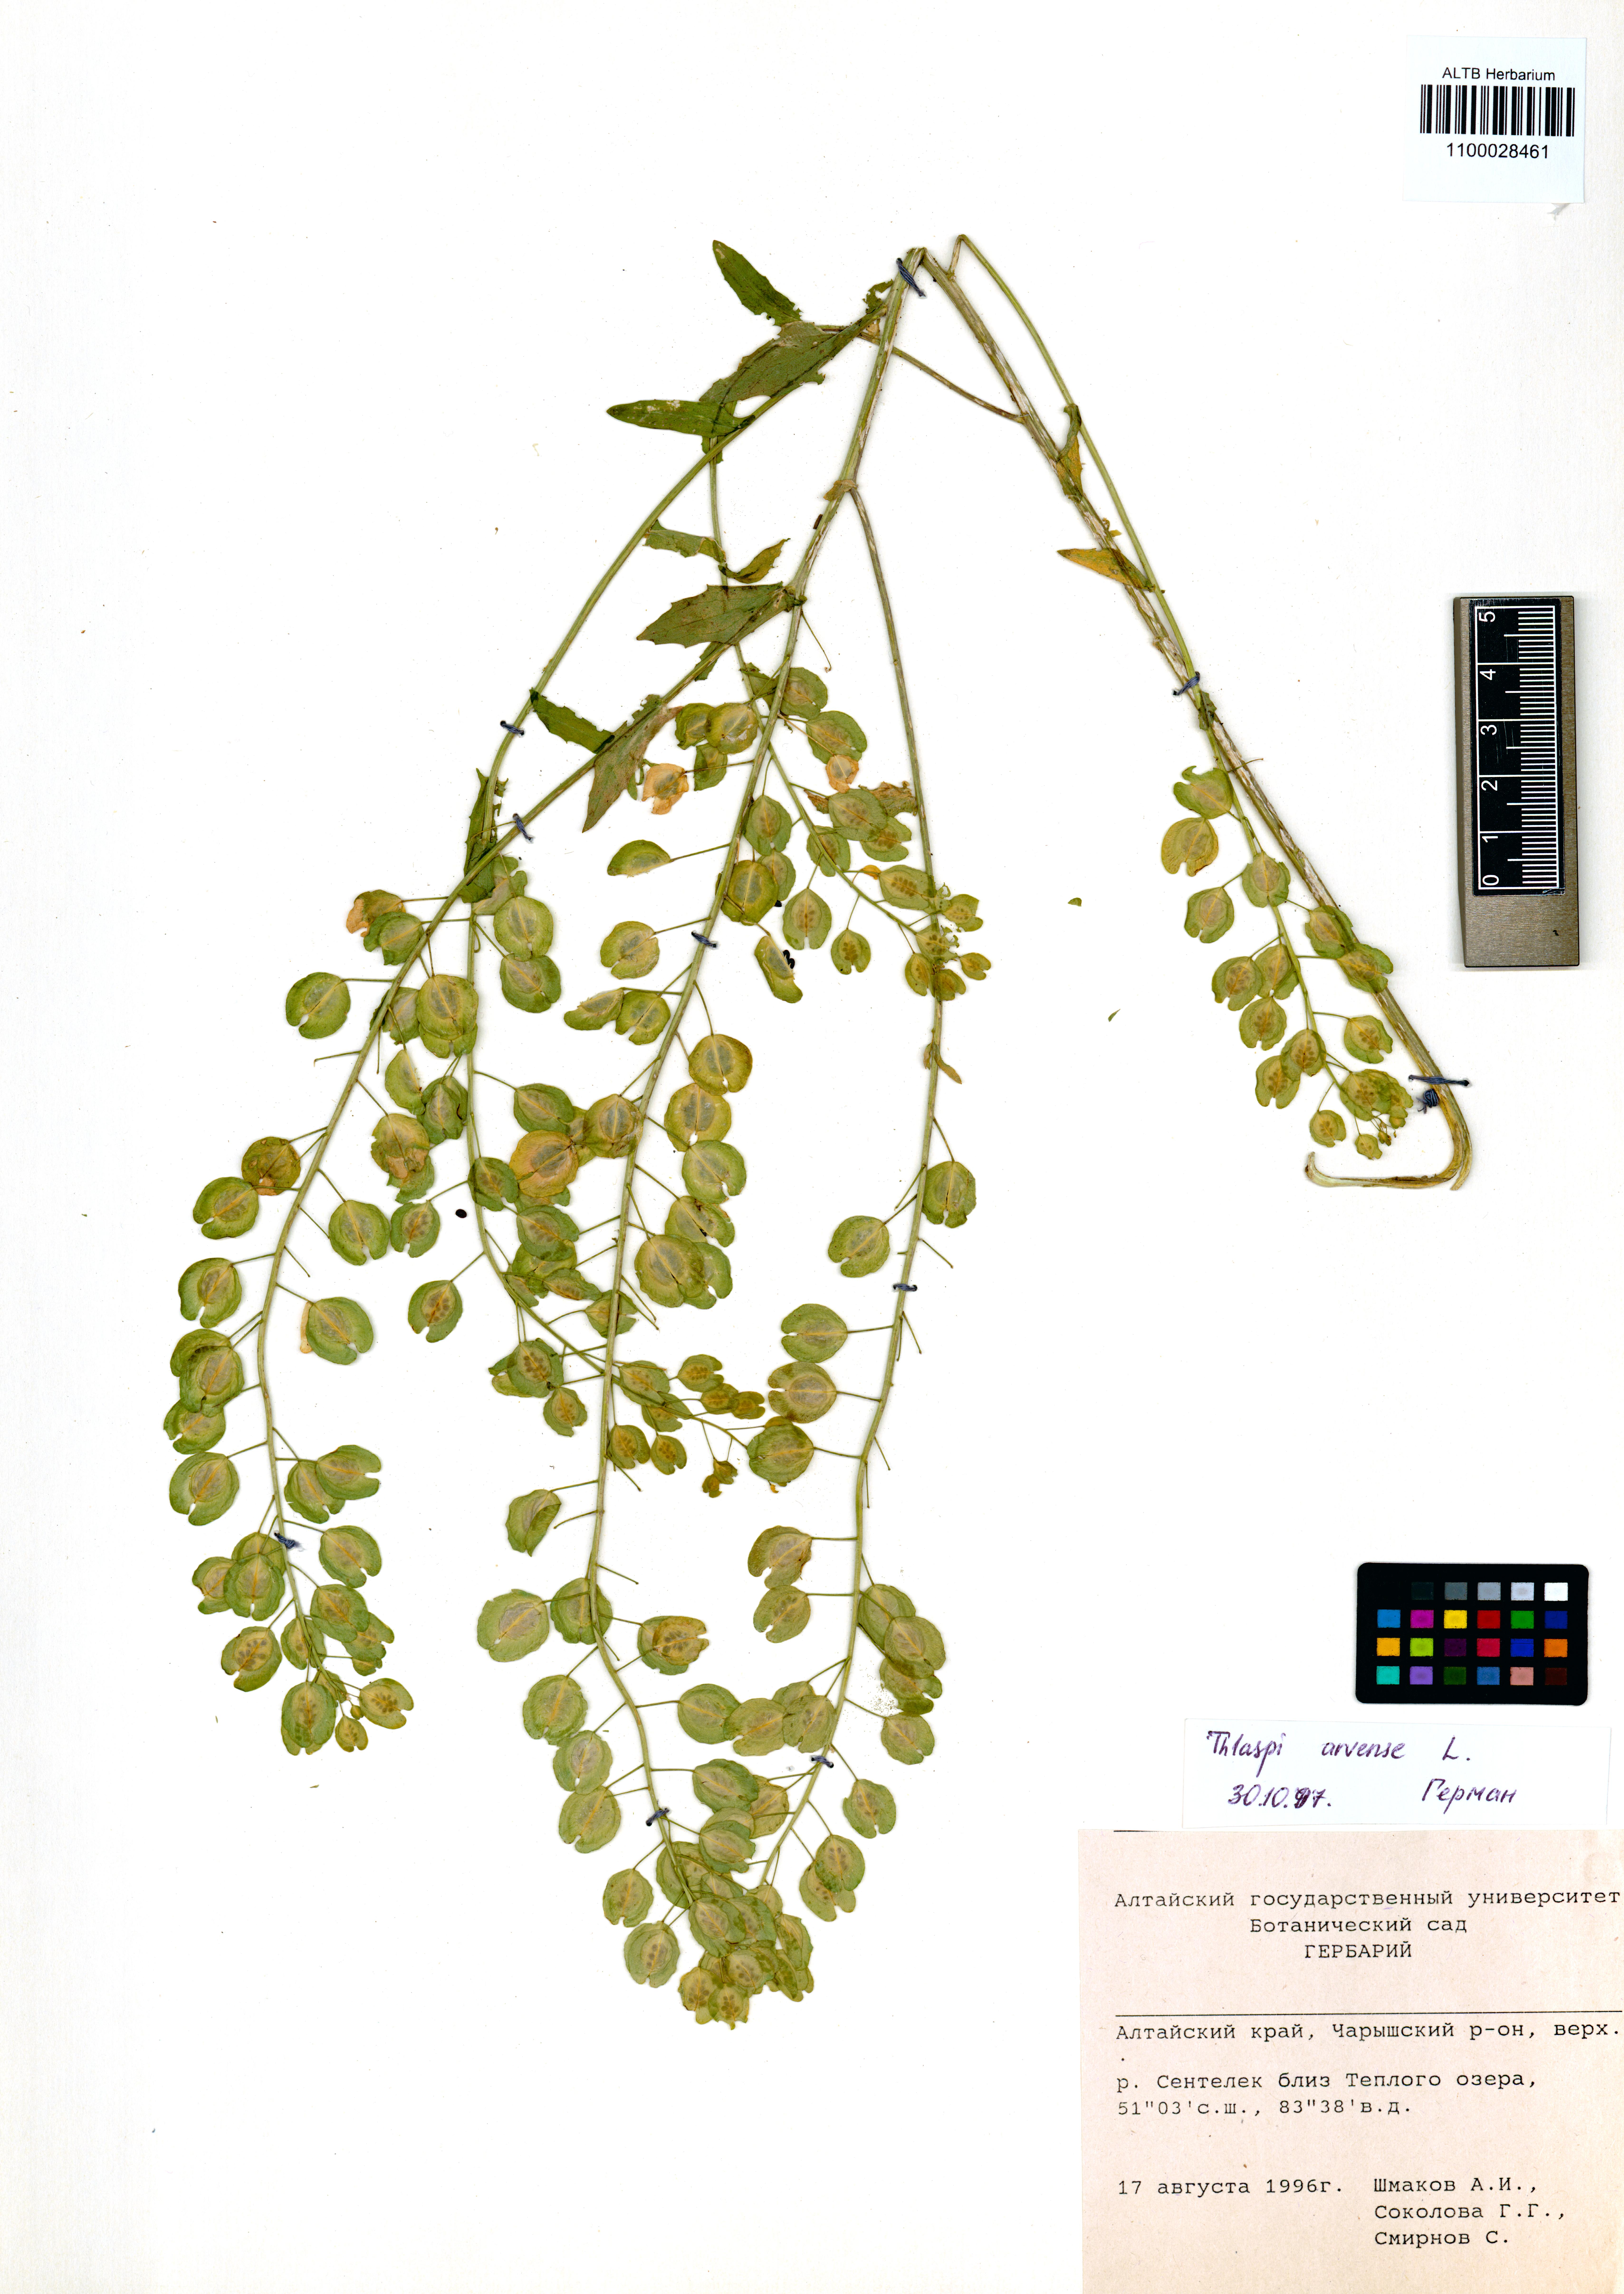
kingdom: Plantae
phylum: Tracheophyta
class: Magnoliopsida
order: Brassicales
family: Brassicaceae
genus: Thlaspi
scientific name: Thlaspi arvense
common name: Field pennycress
